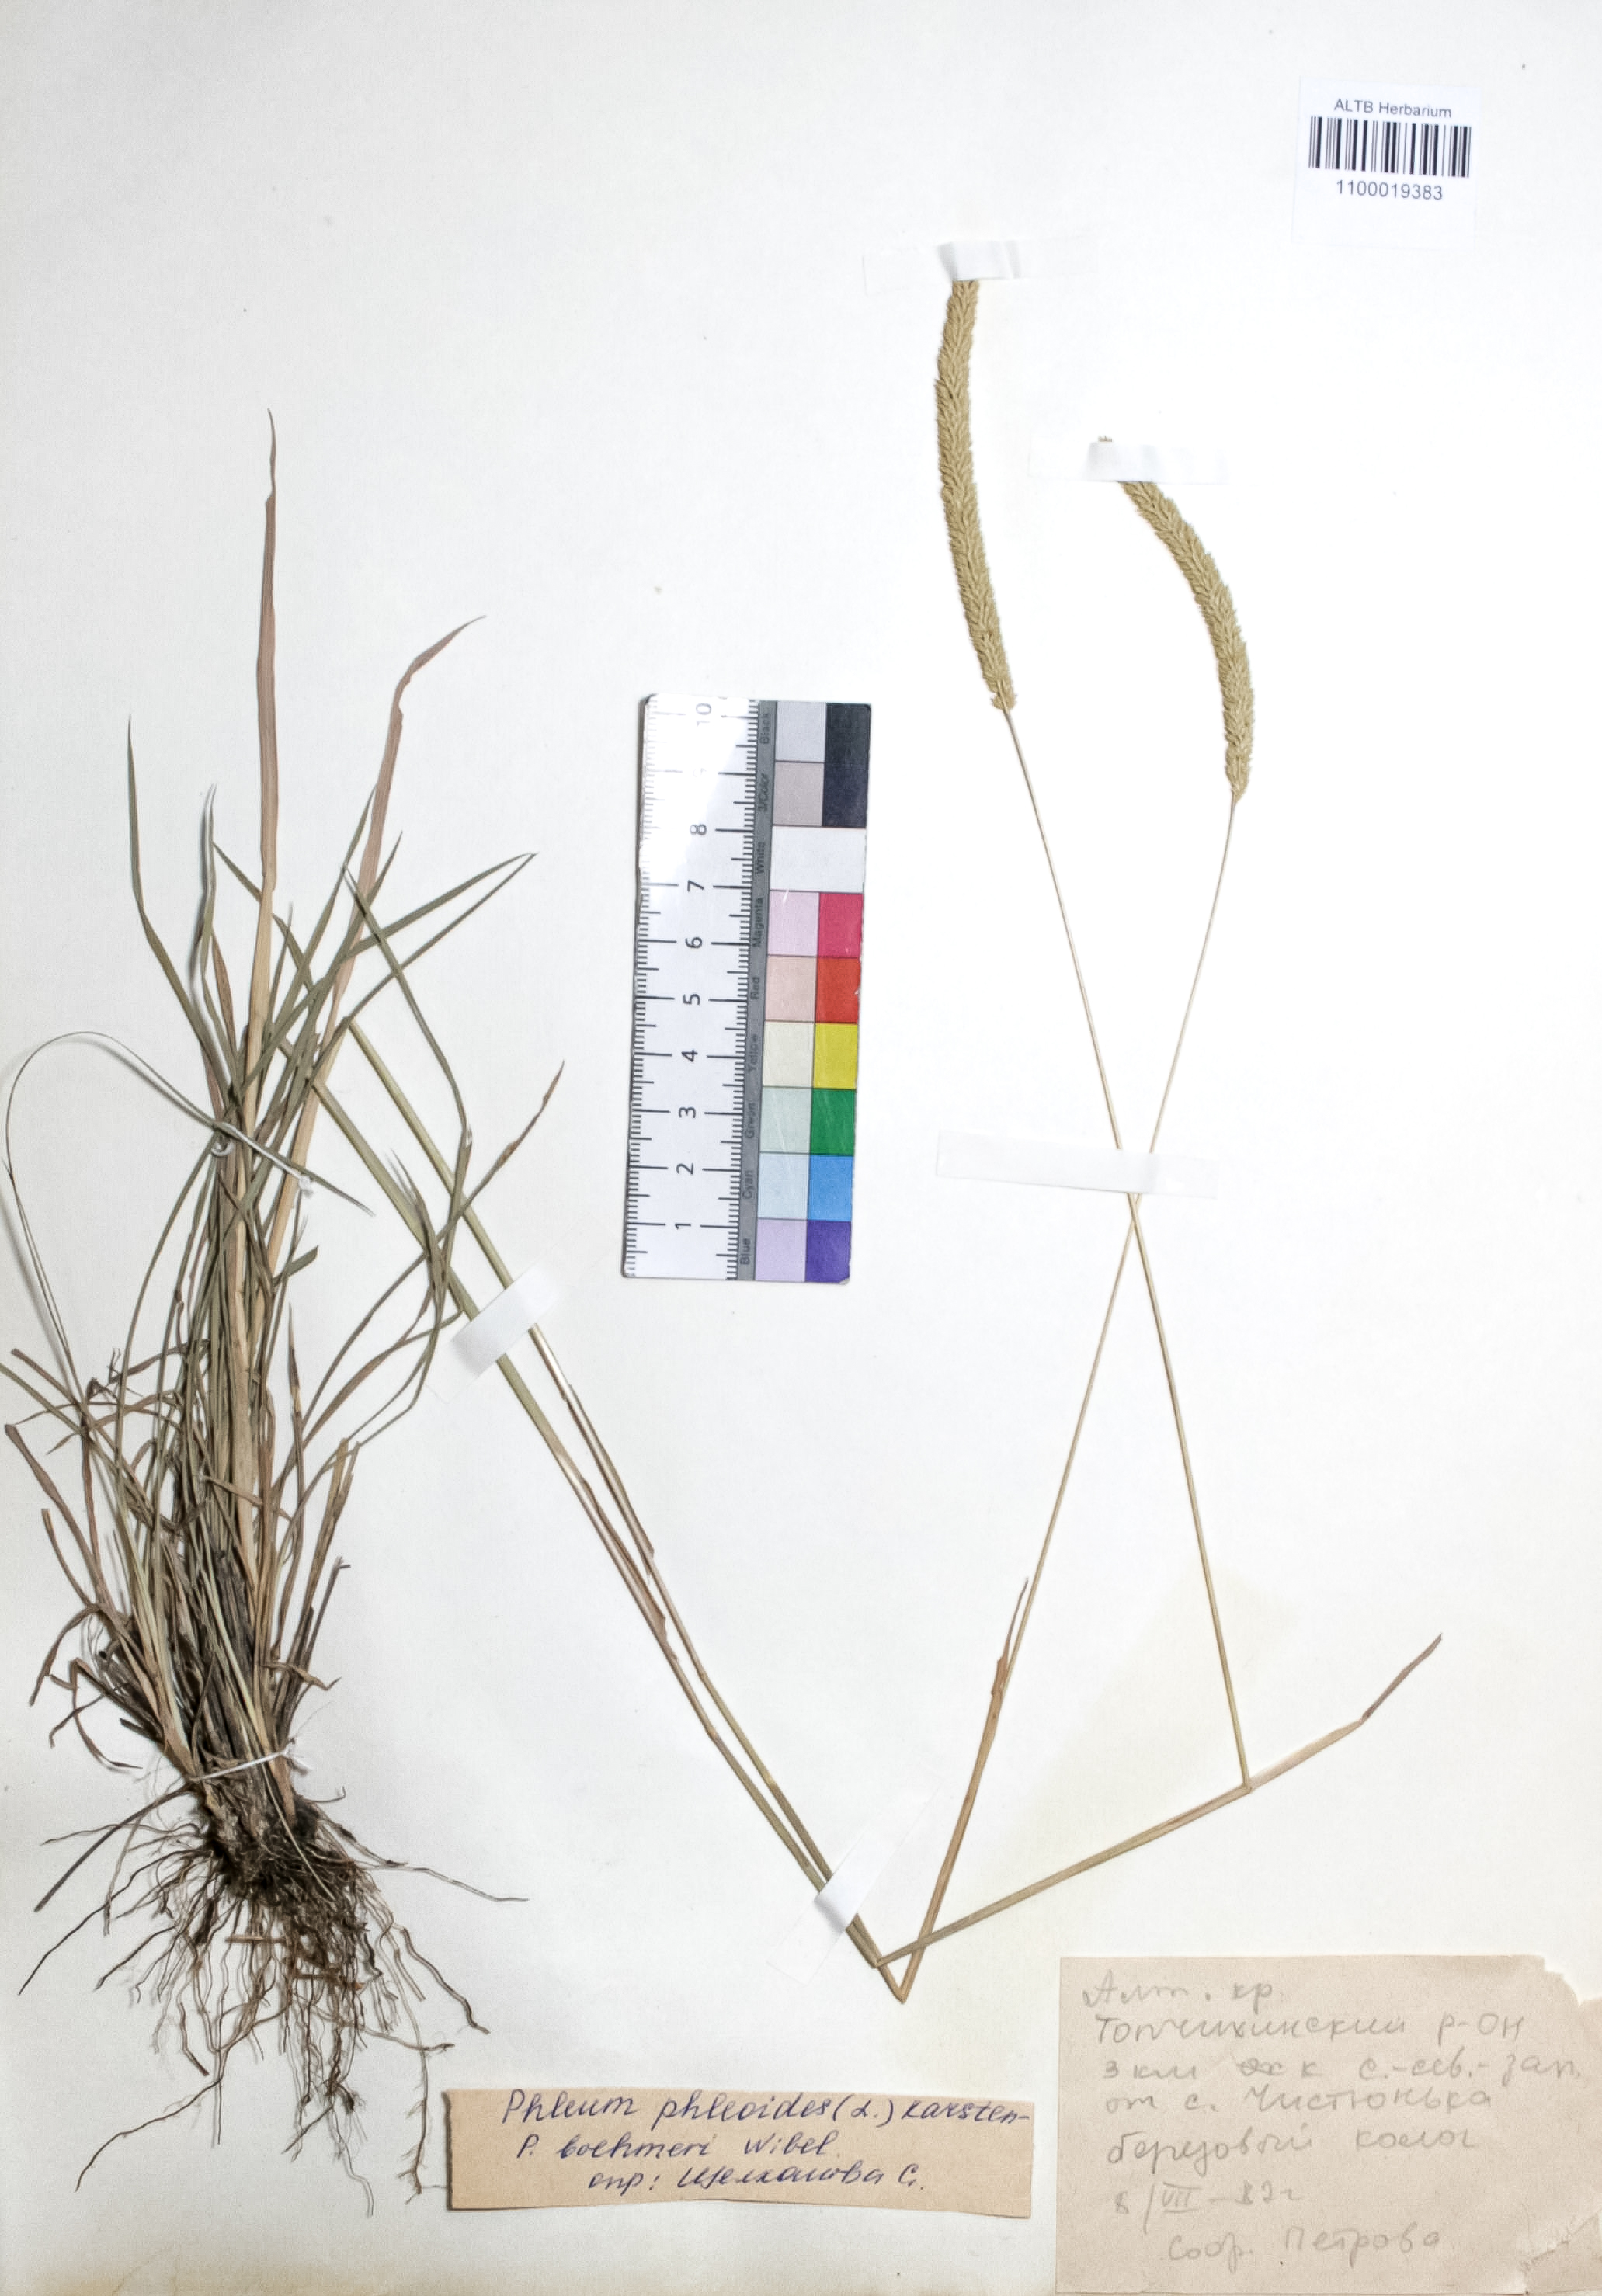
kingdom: Plantae
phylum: Tracheophyta
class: Liliopsida
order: Poales
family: Poaceae
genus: Phleum
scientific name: Phleum phleoides
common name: Purple-stem cat's-tail
